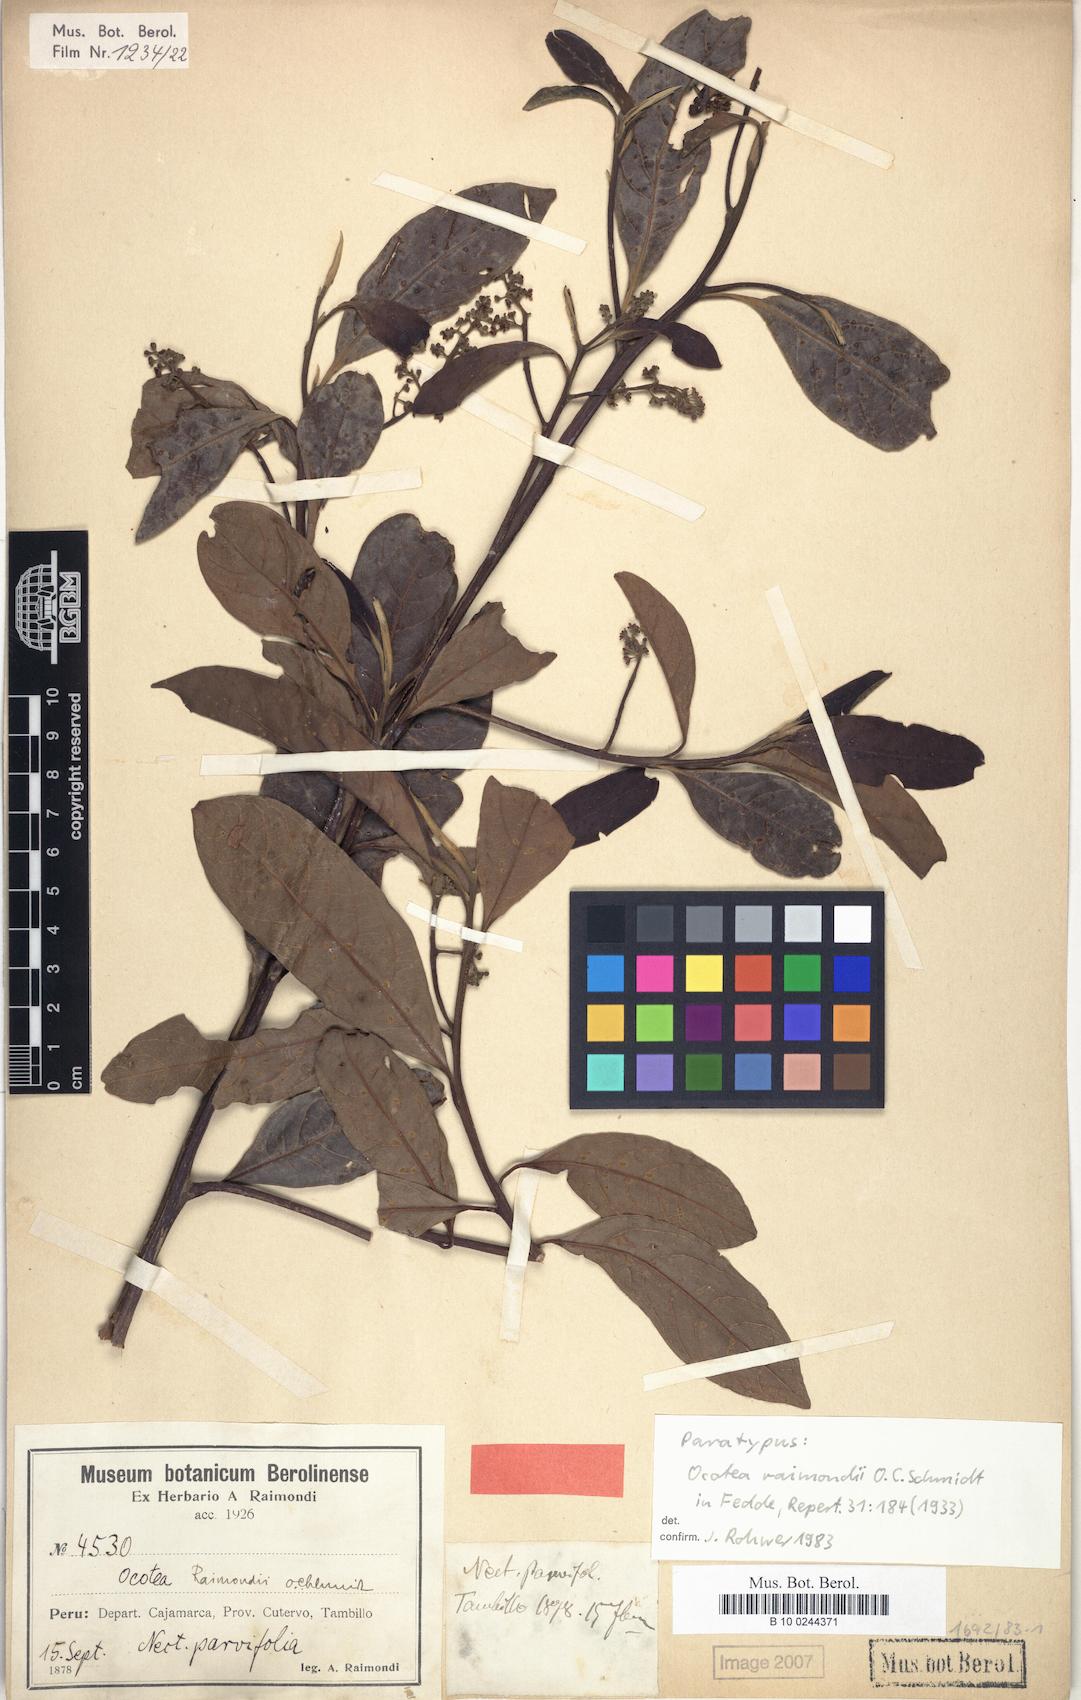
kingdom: Plantae
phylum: Tracheophyta
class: Magnoliopsida
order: Laurales
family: Lauraceae
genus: Ocotea
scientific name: Ocotea cuneifolia
